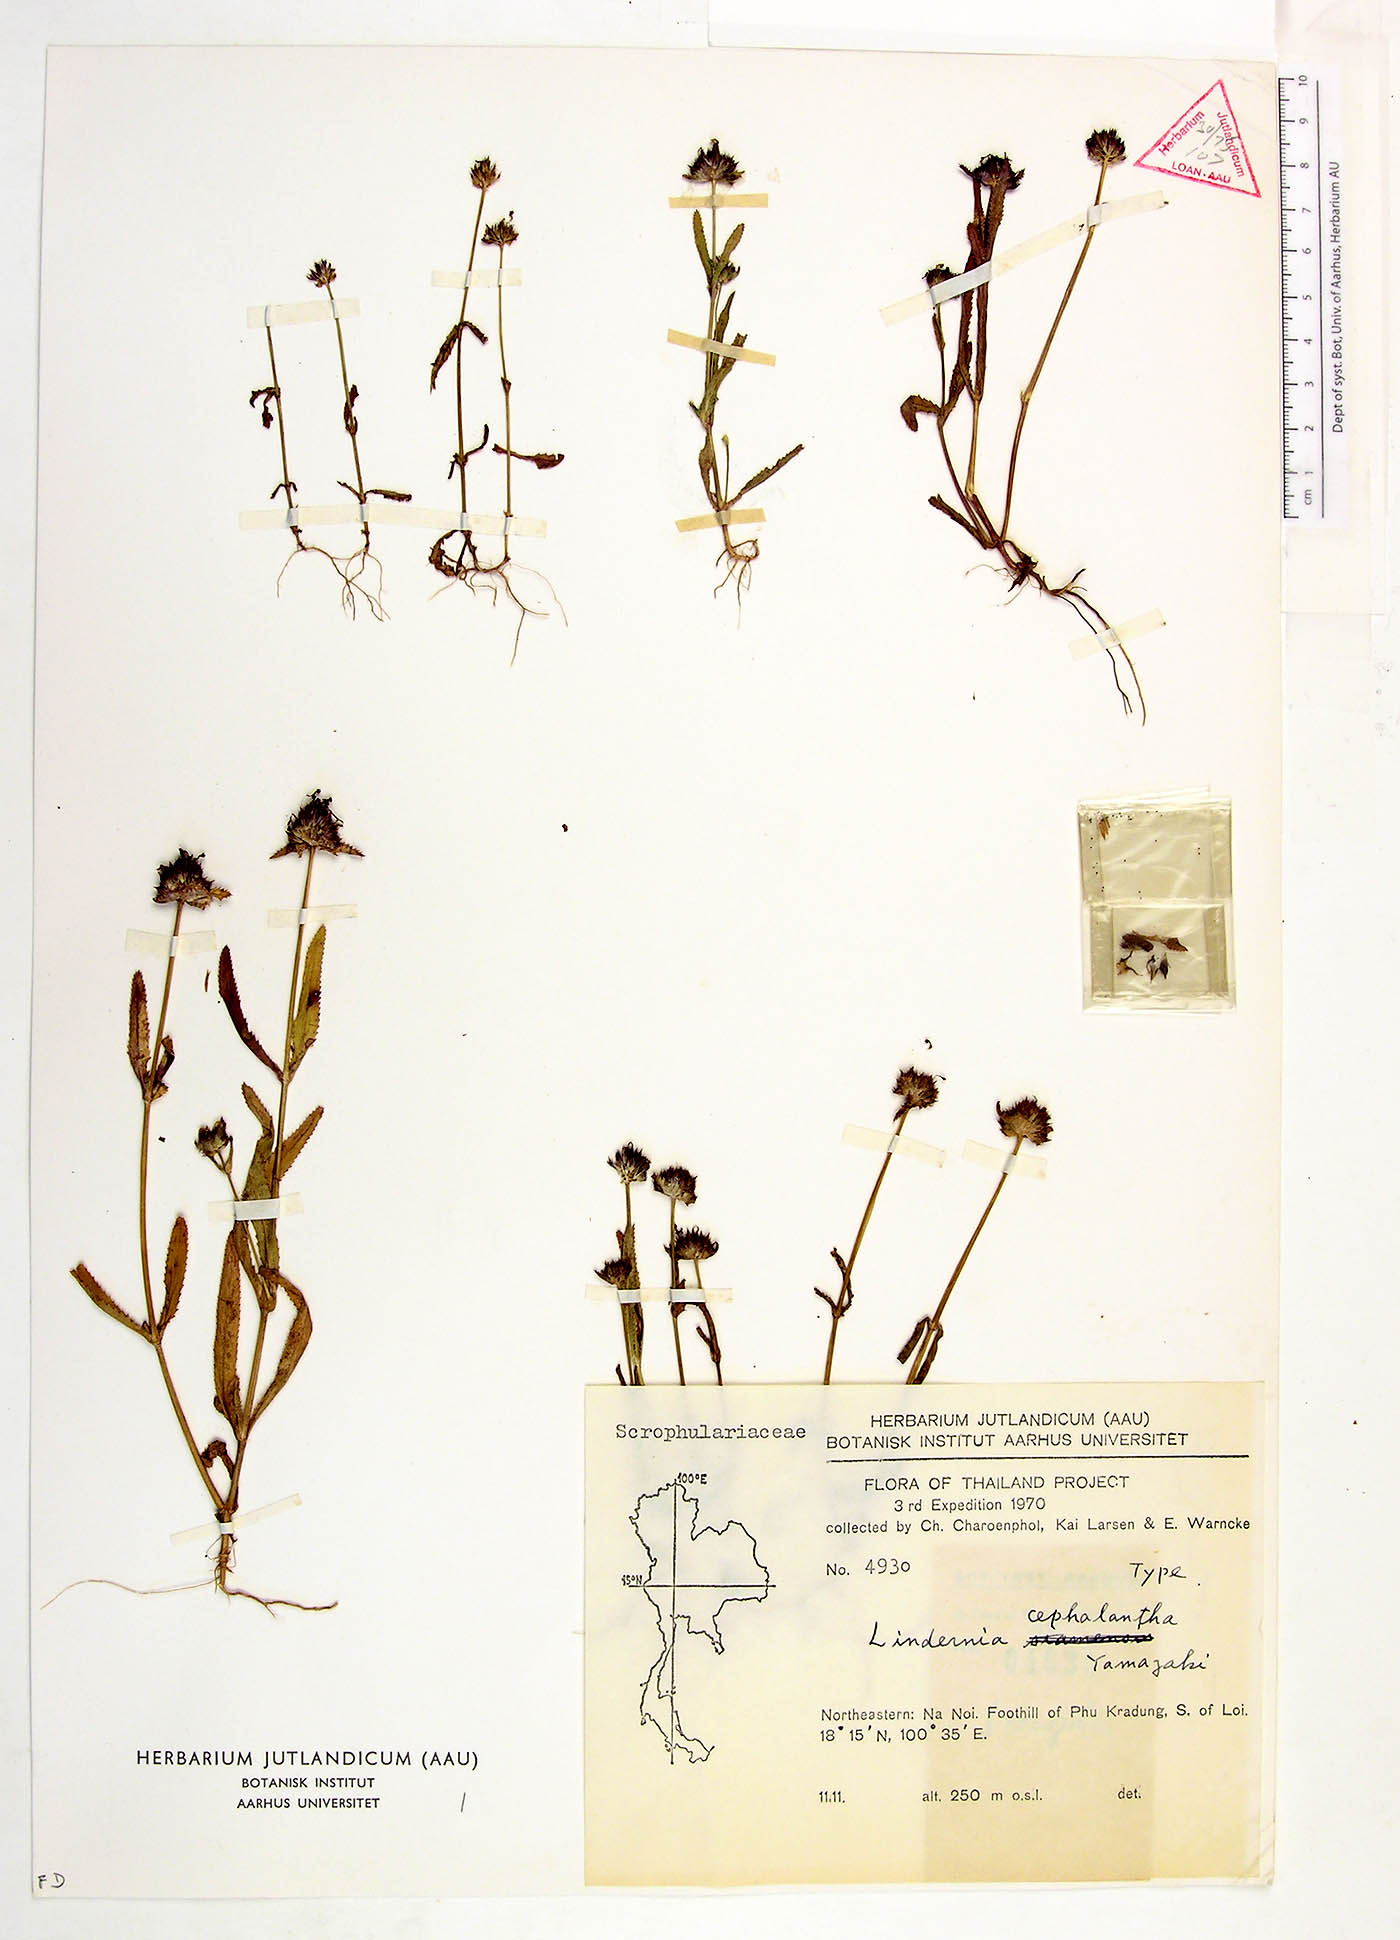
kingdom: Plantae
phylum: Tracheophyta
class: Magnoliopsida
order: Lamiales
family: Linderniaceae
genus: Bonnaya
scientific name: Bonnaya cephalantha
